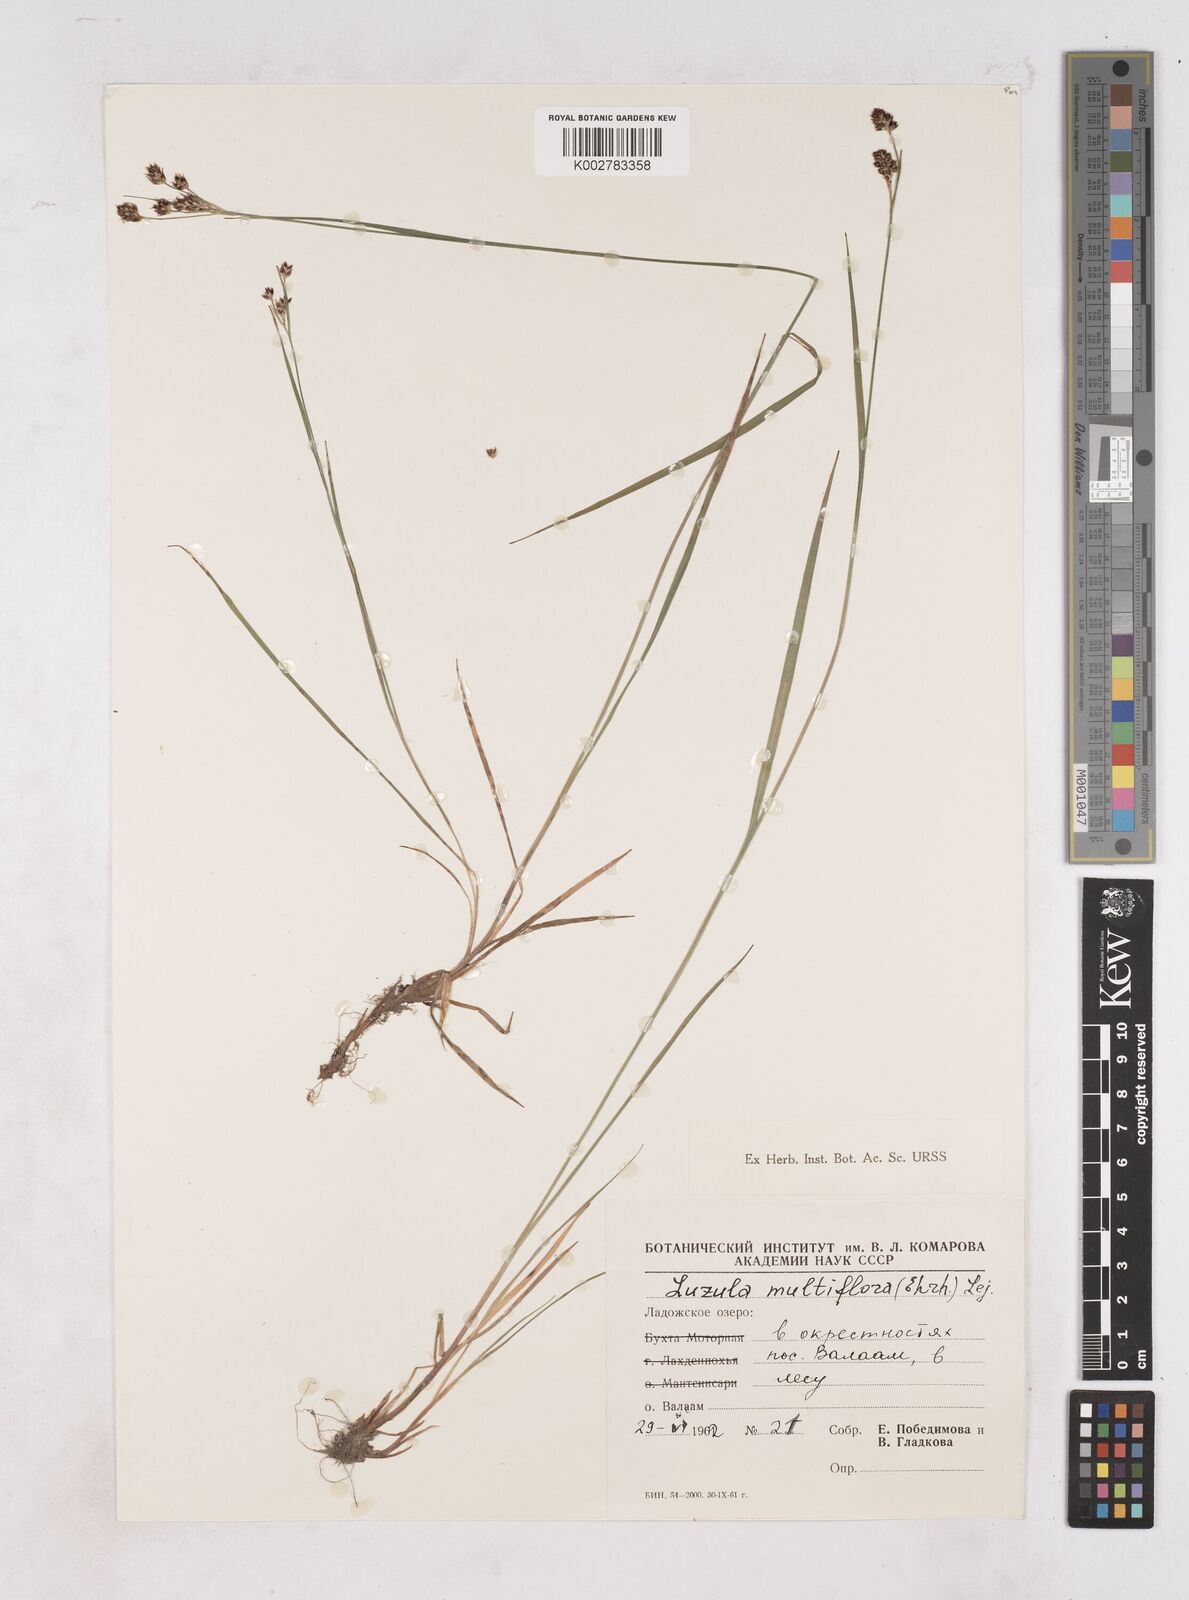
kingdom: Plantae
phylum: Tracheophyta
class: Liliopsida
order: Poales
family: Juncaceae
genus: Luzula
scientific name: Luzula multiflora
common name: Heath wood-rush
